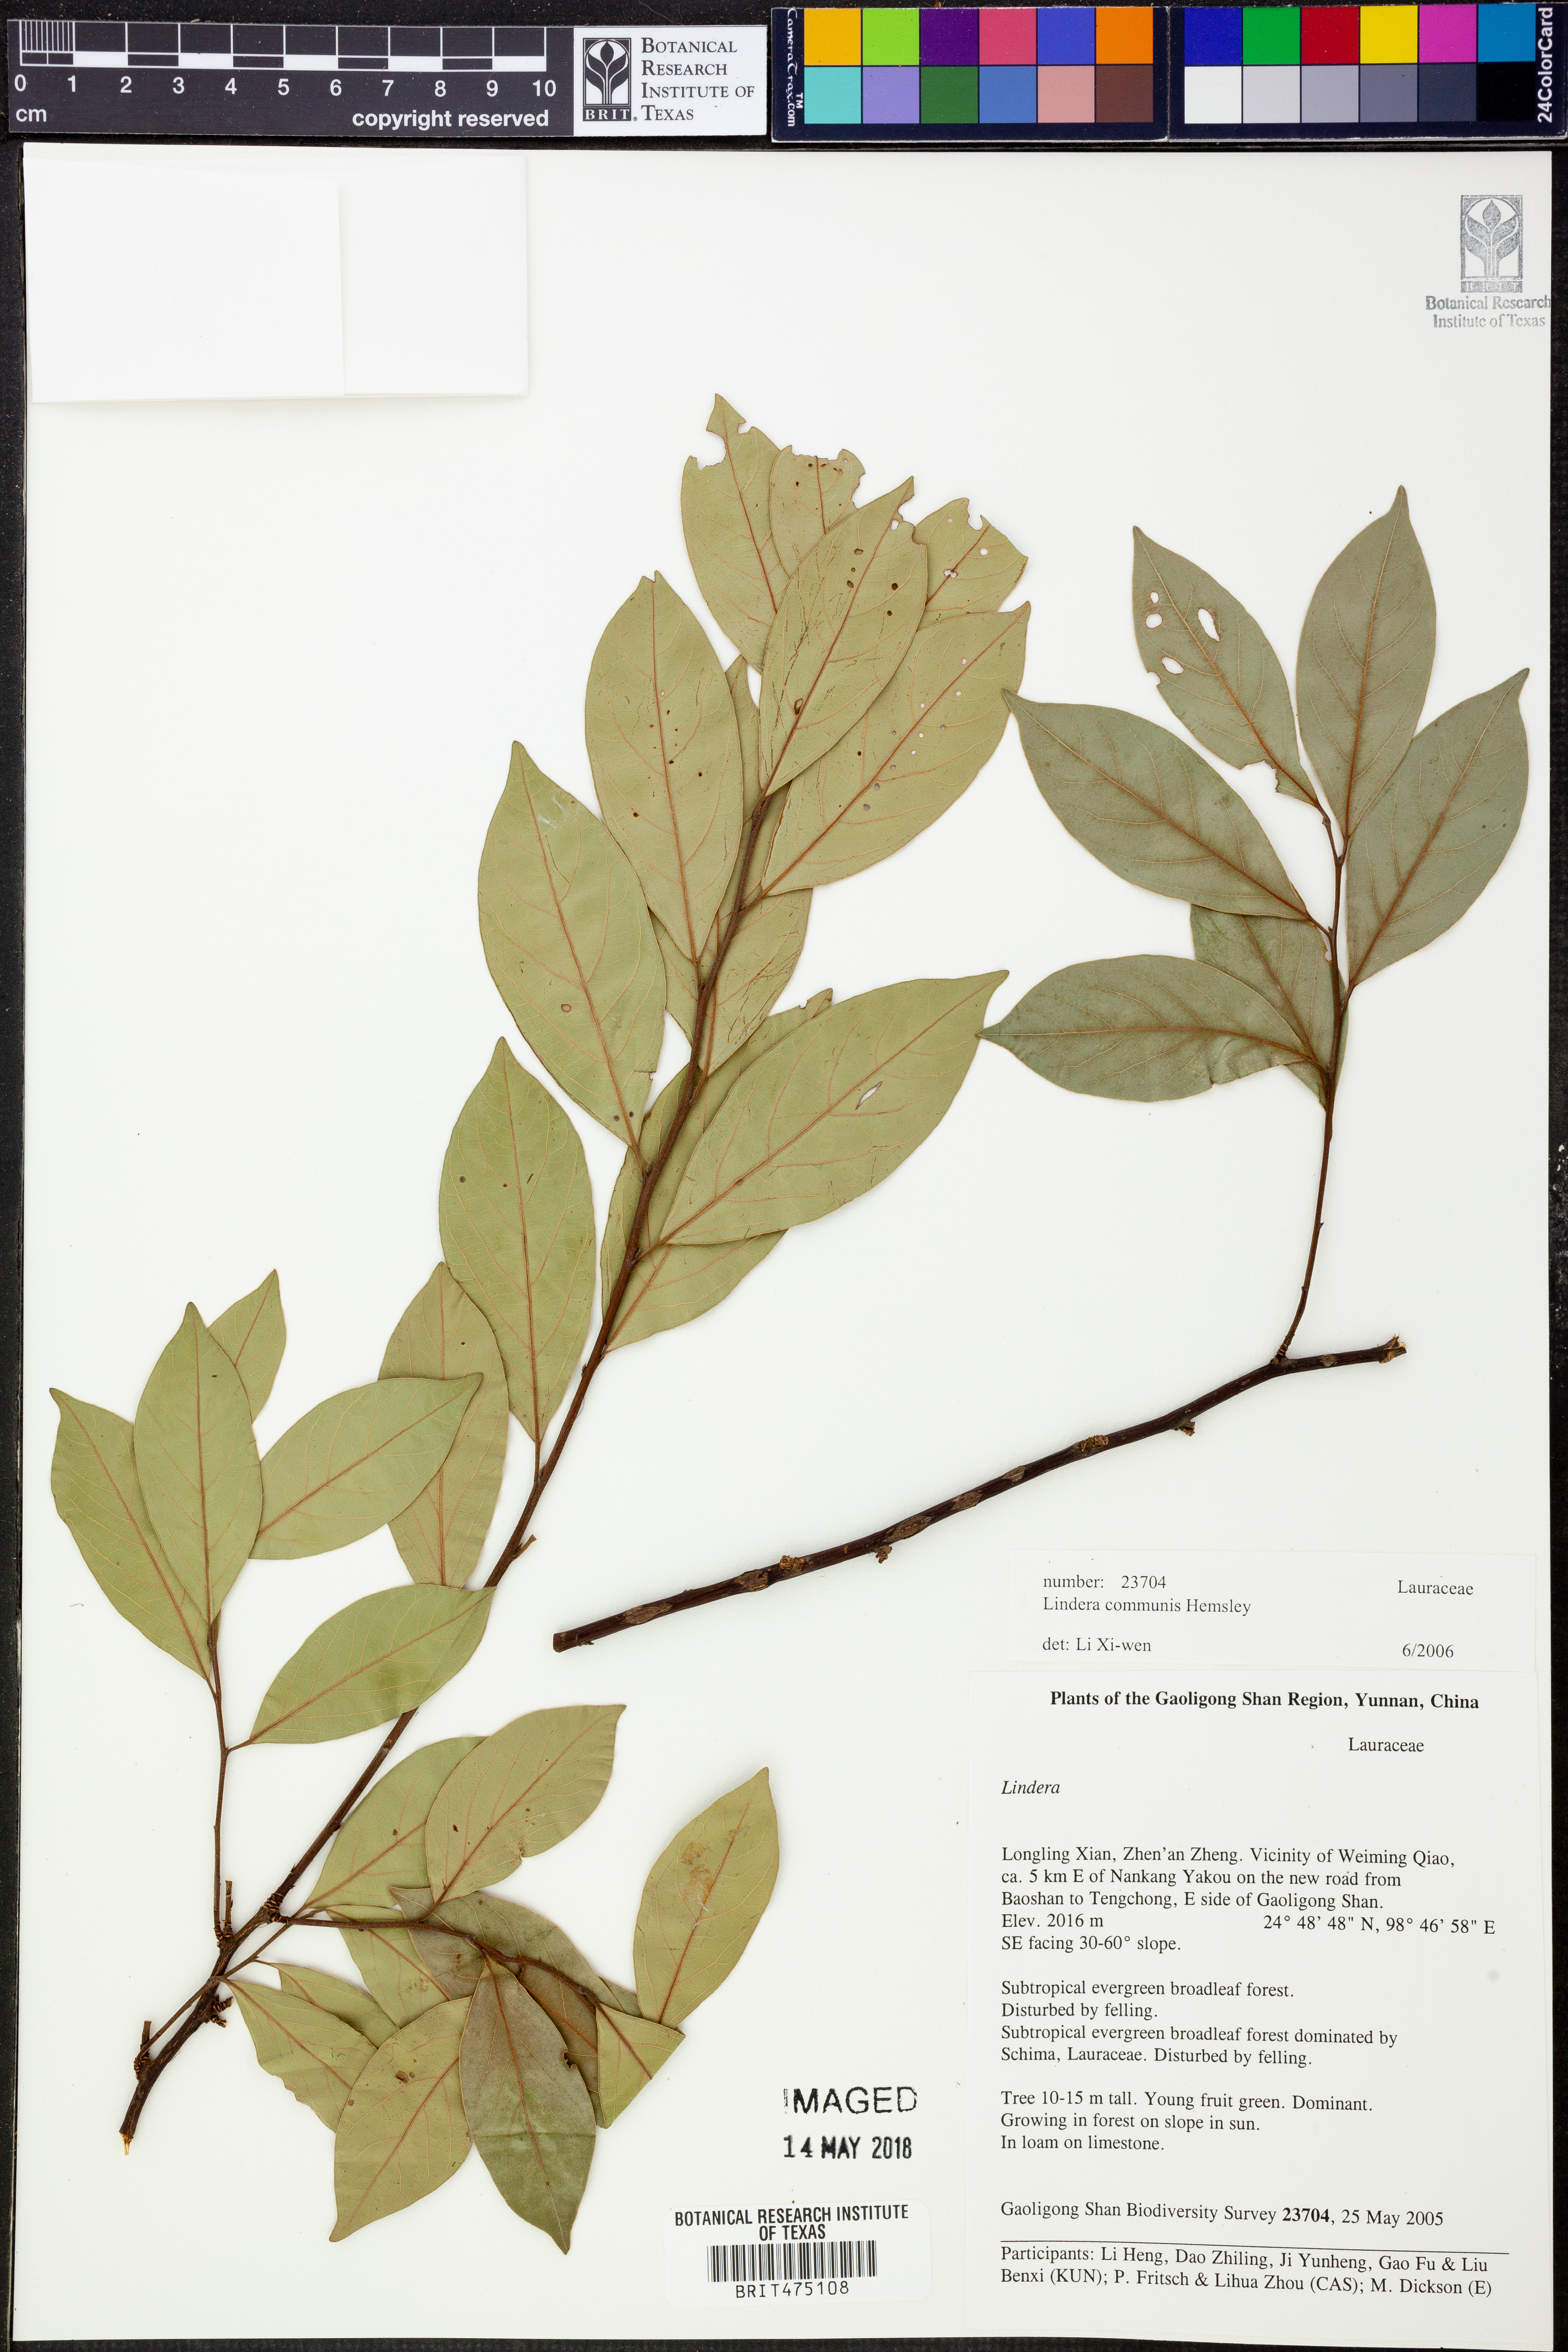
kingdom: Plantae
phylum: Tracheophyta
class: Magnoliopsida
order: Laurales
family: Lauraceae
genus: Lindera
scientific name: Lindera communis
